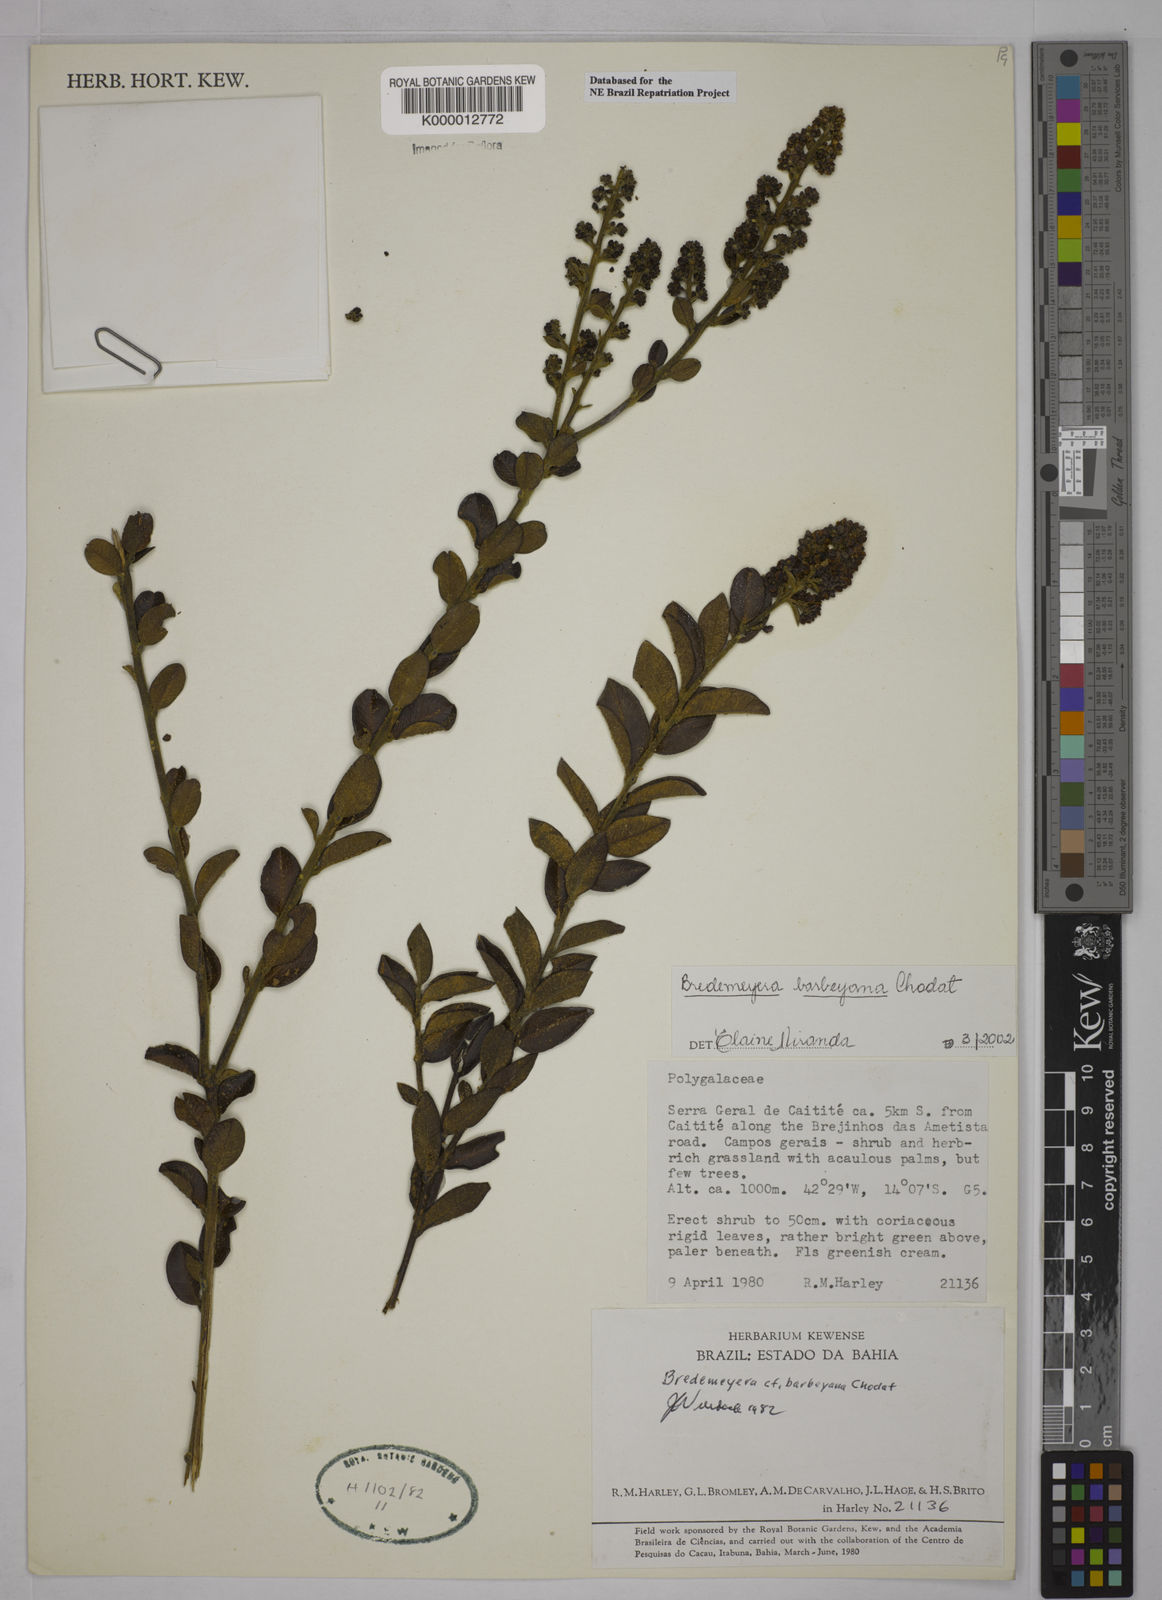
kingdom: Plantae
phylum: Tracheophyta
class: Magnoliopsida
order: Fabales
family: Polygalaceae
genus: Bredemeyera
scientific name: Bredemeyera barbeyana
